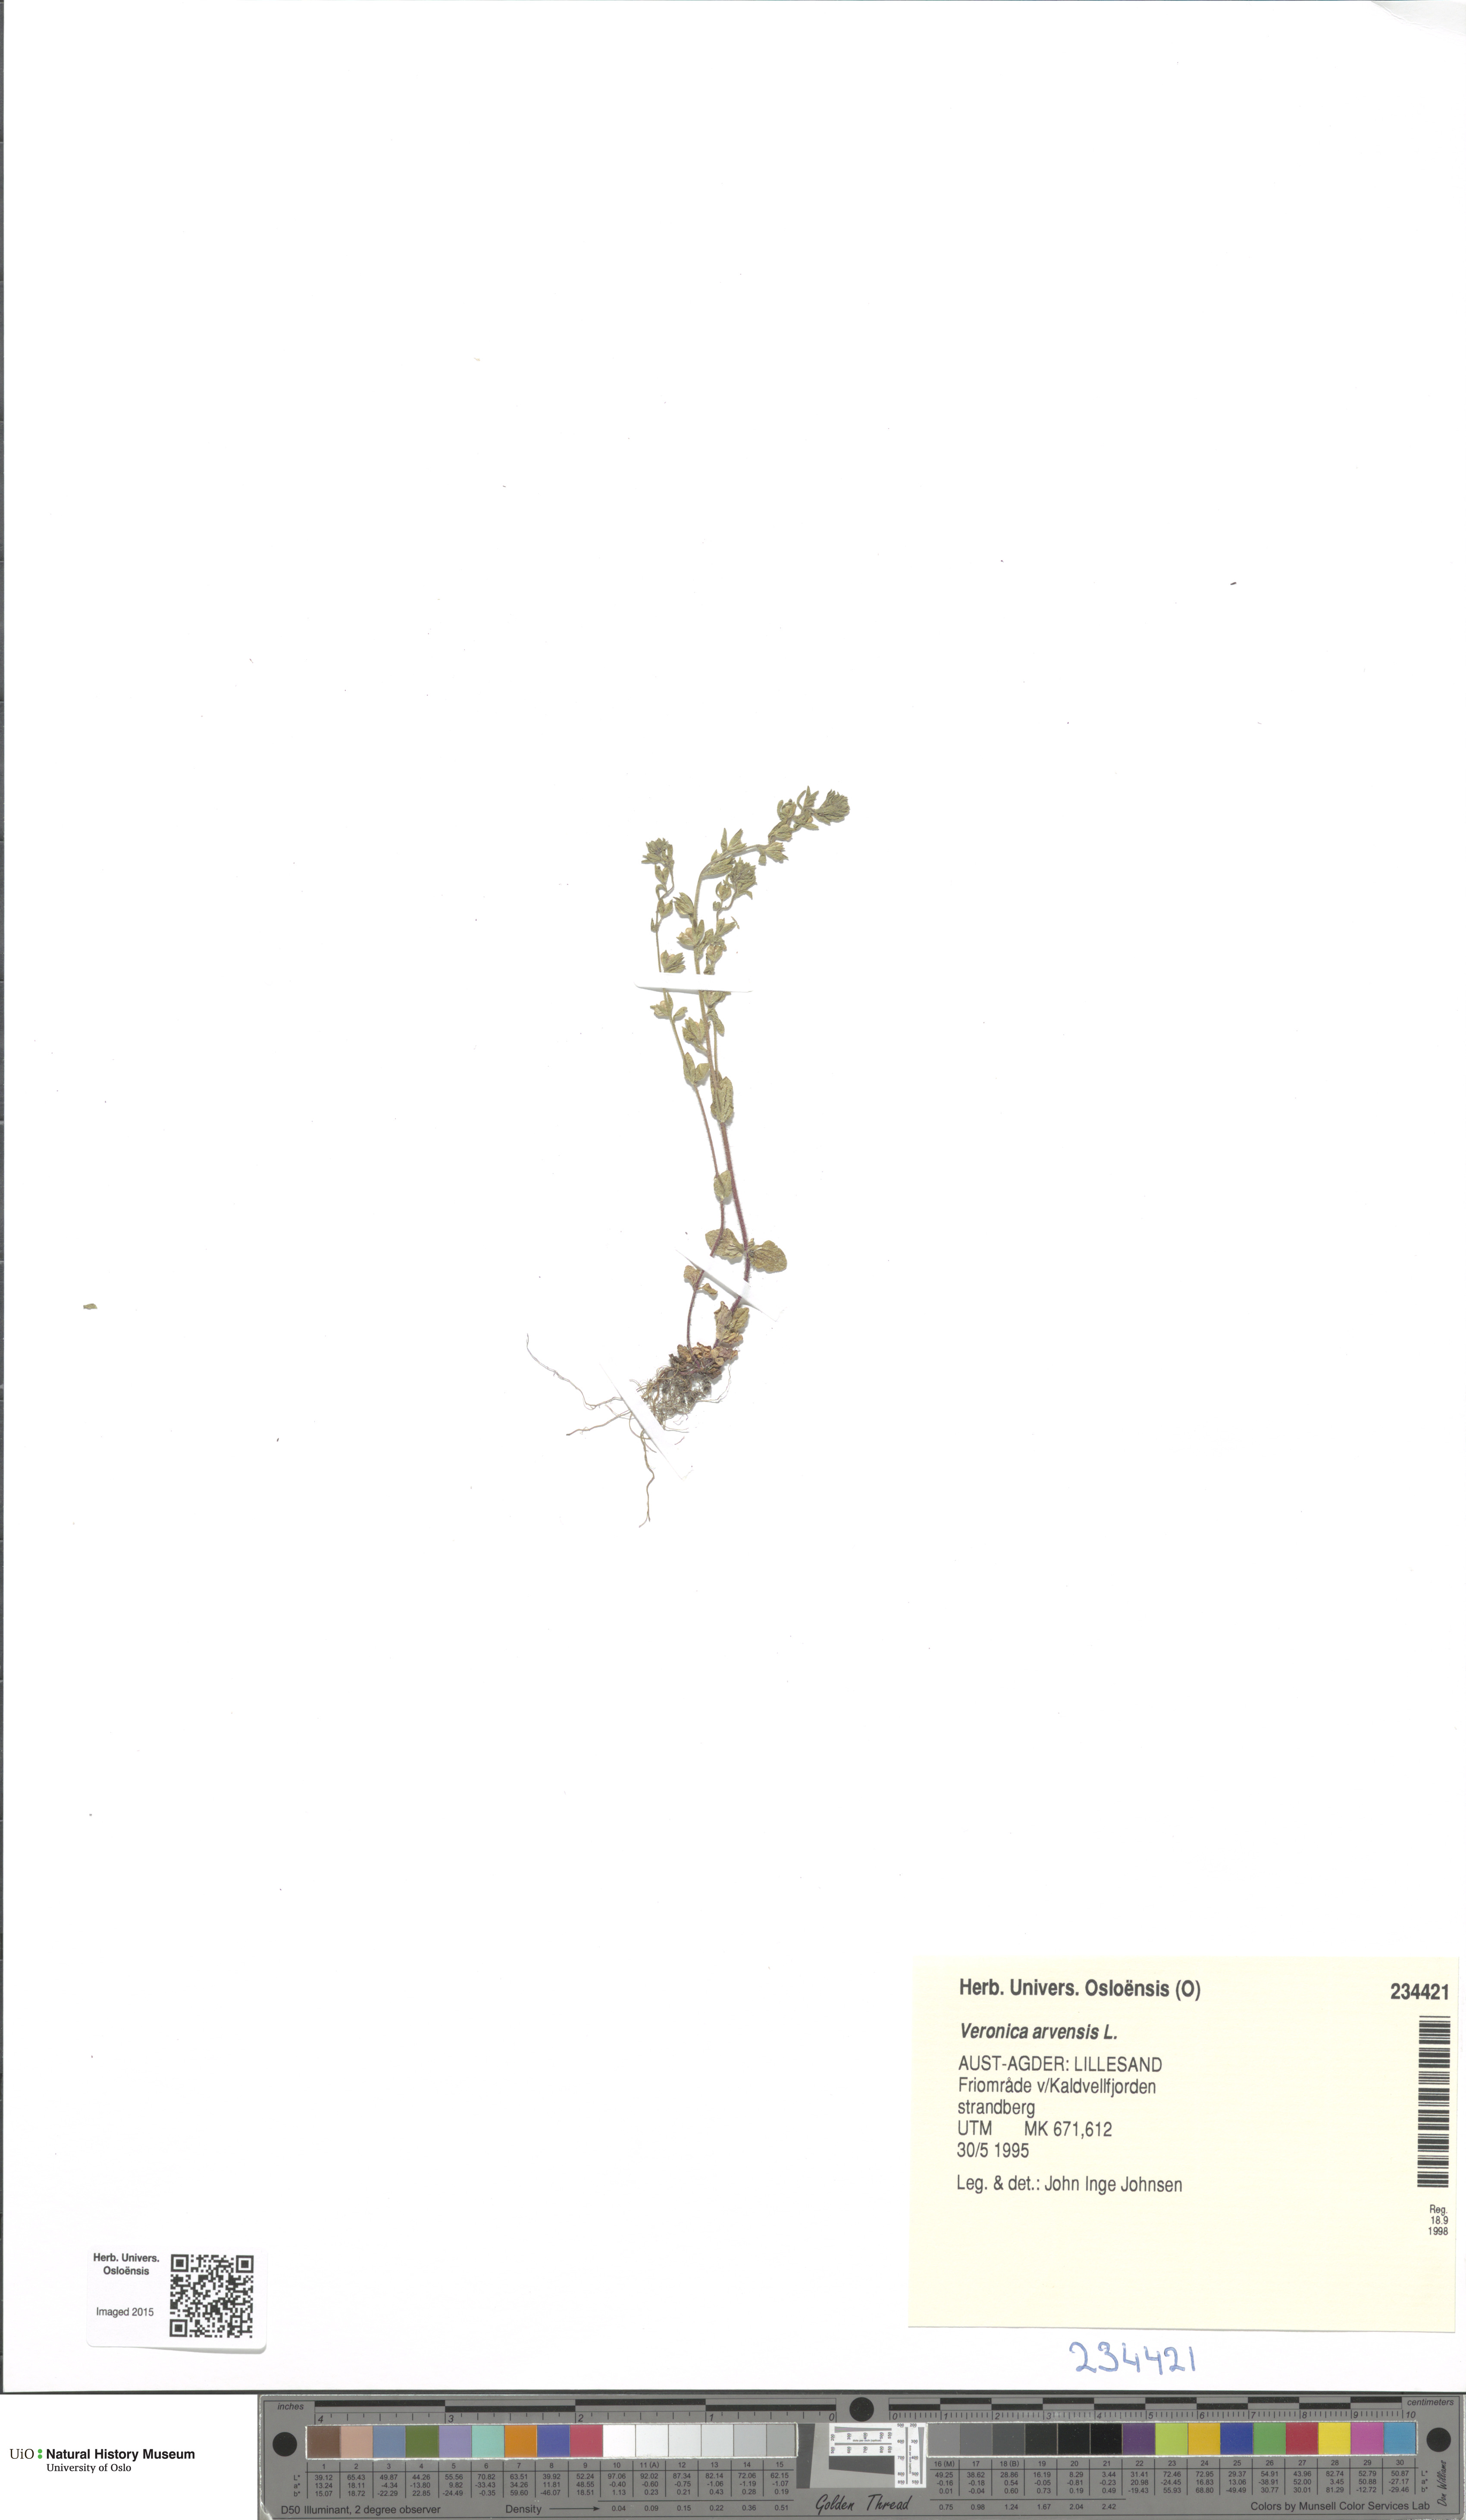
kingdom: Plantae
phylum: Tracheophyta
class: Magnoliopsida
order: Lamiales
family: Plantaginaceae
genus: Veronica
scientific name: Veronica arvensis
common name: Corn speedwell
